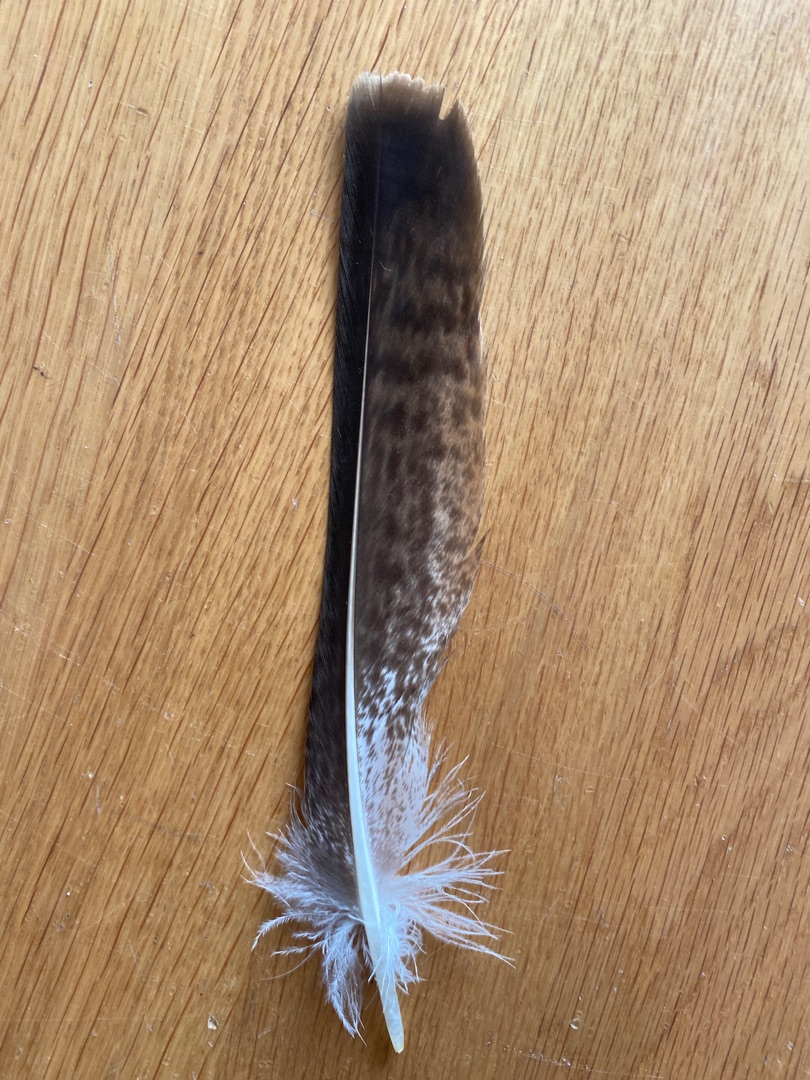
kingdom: Animalia
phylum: Chordata
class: Aves
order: Accipitriformes
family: Accipitridae
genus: Buteo
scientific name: Buteo buteo
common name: Musvåge
